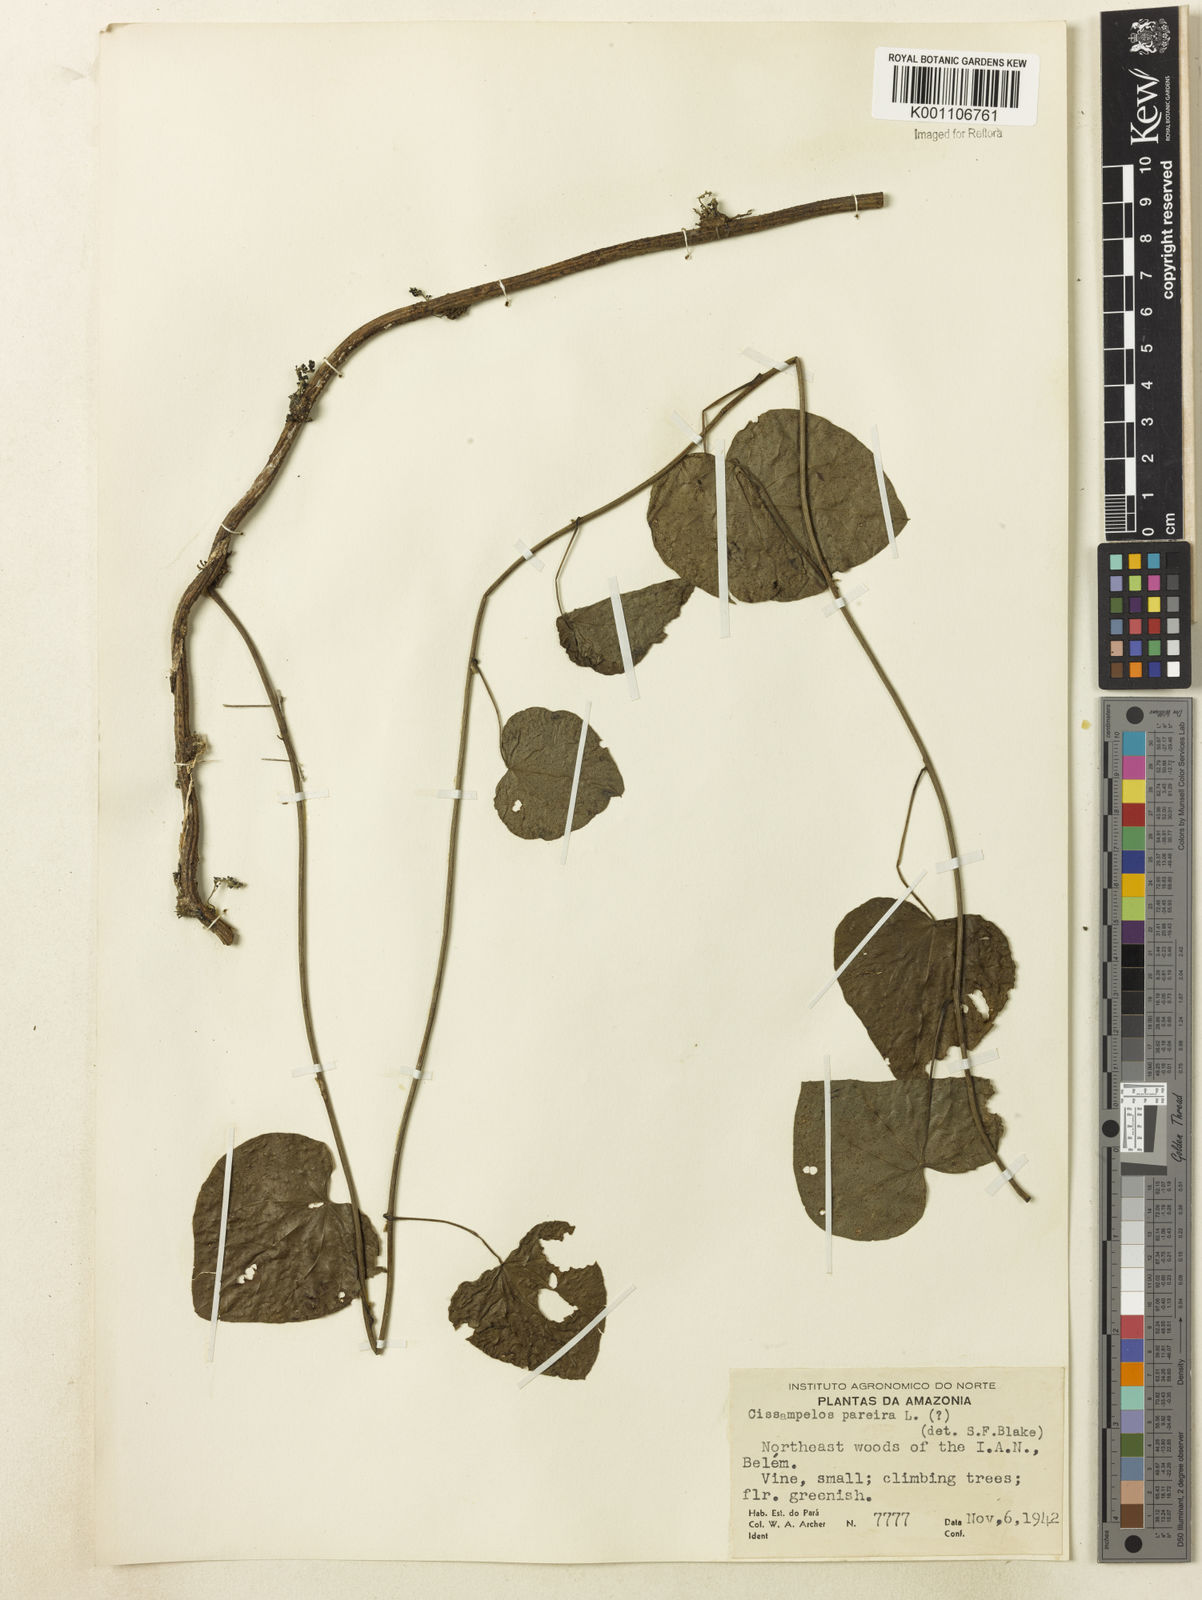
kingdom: Plantae
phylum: Tracheophyta
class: Magnoliopsida
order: Ranunculales
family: Menispermaceae
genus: Cissampelos
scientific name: Cissampelos pareira
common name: Velvetleaf
